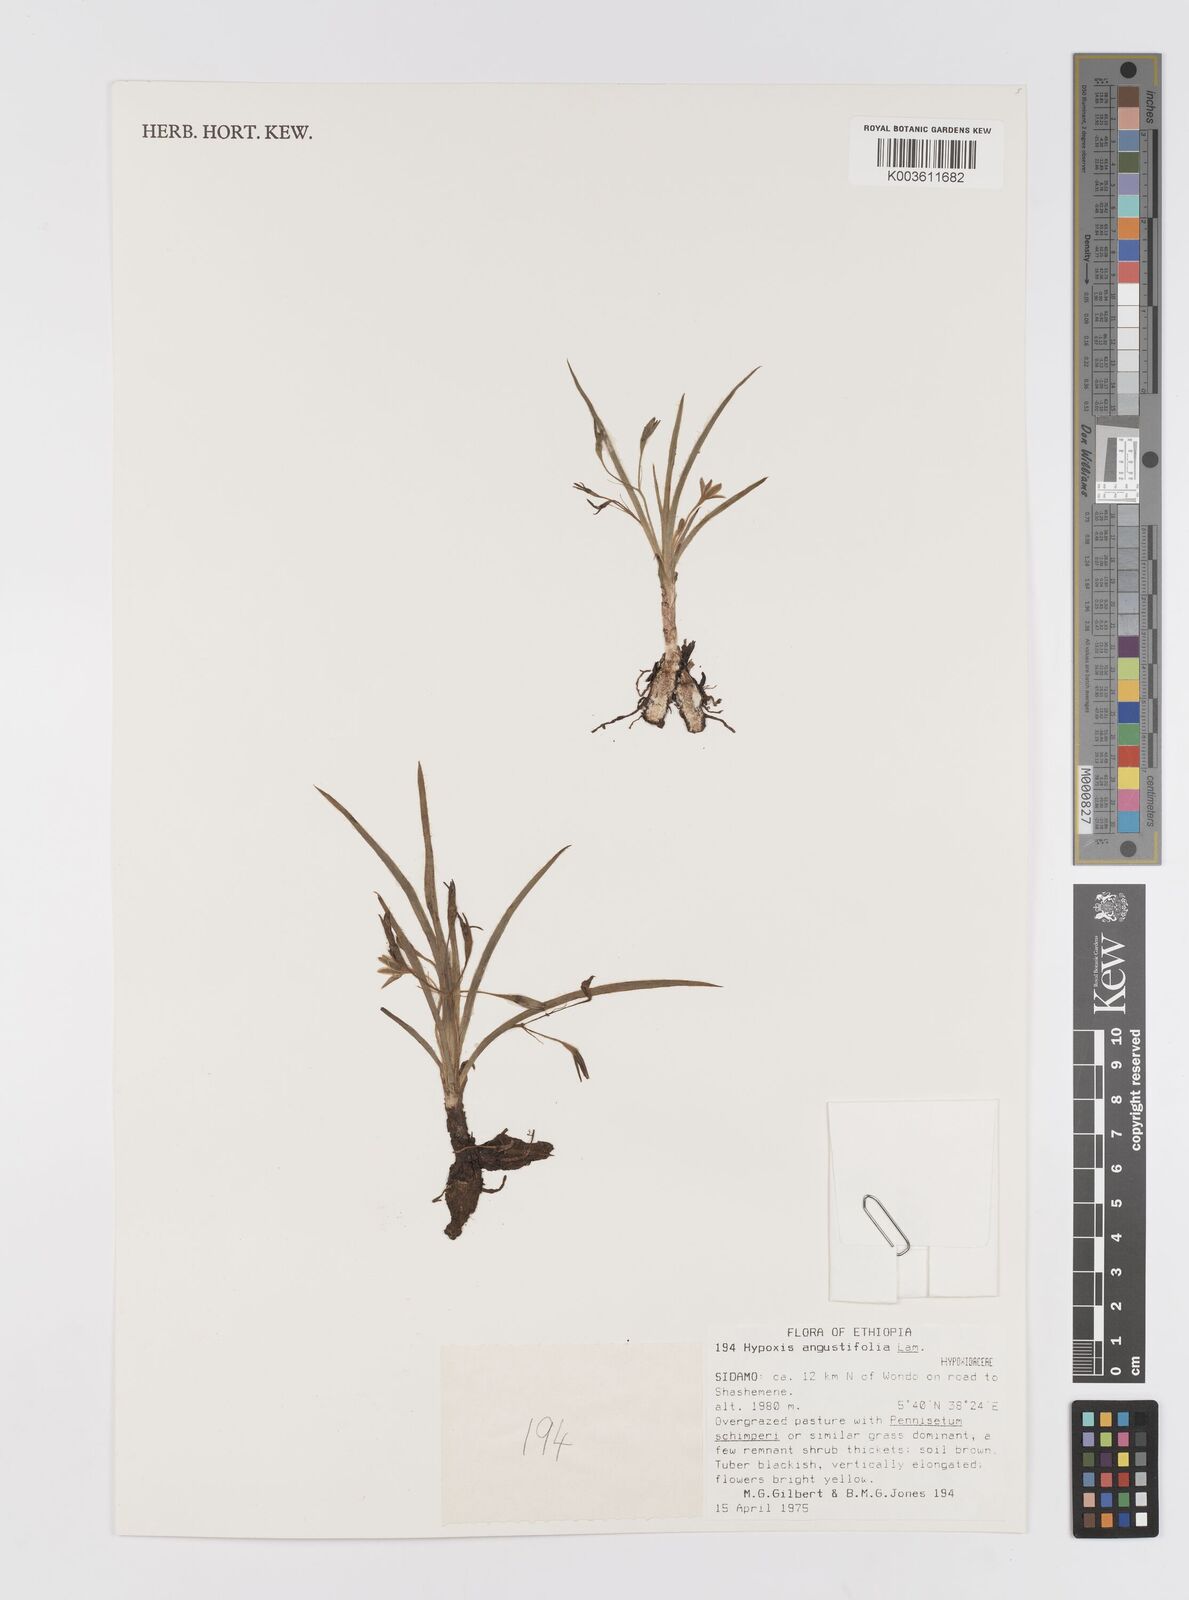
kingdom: Plantae
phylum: Tracheophyta
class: Liliopsida
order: Asparagales
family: Hypoxidaceae
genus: Hypoxis
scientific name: Hypoxis angustifolia
